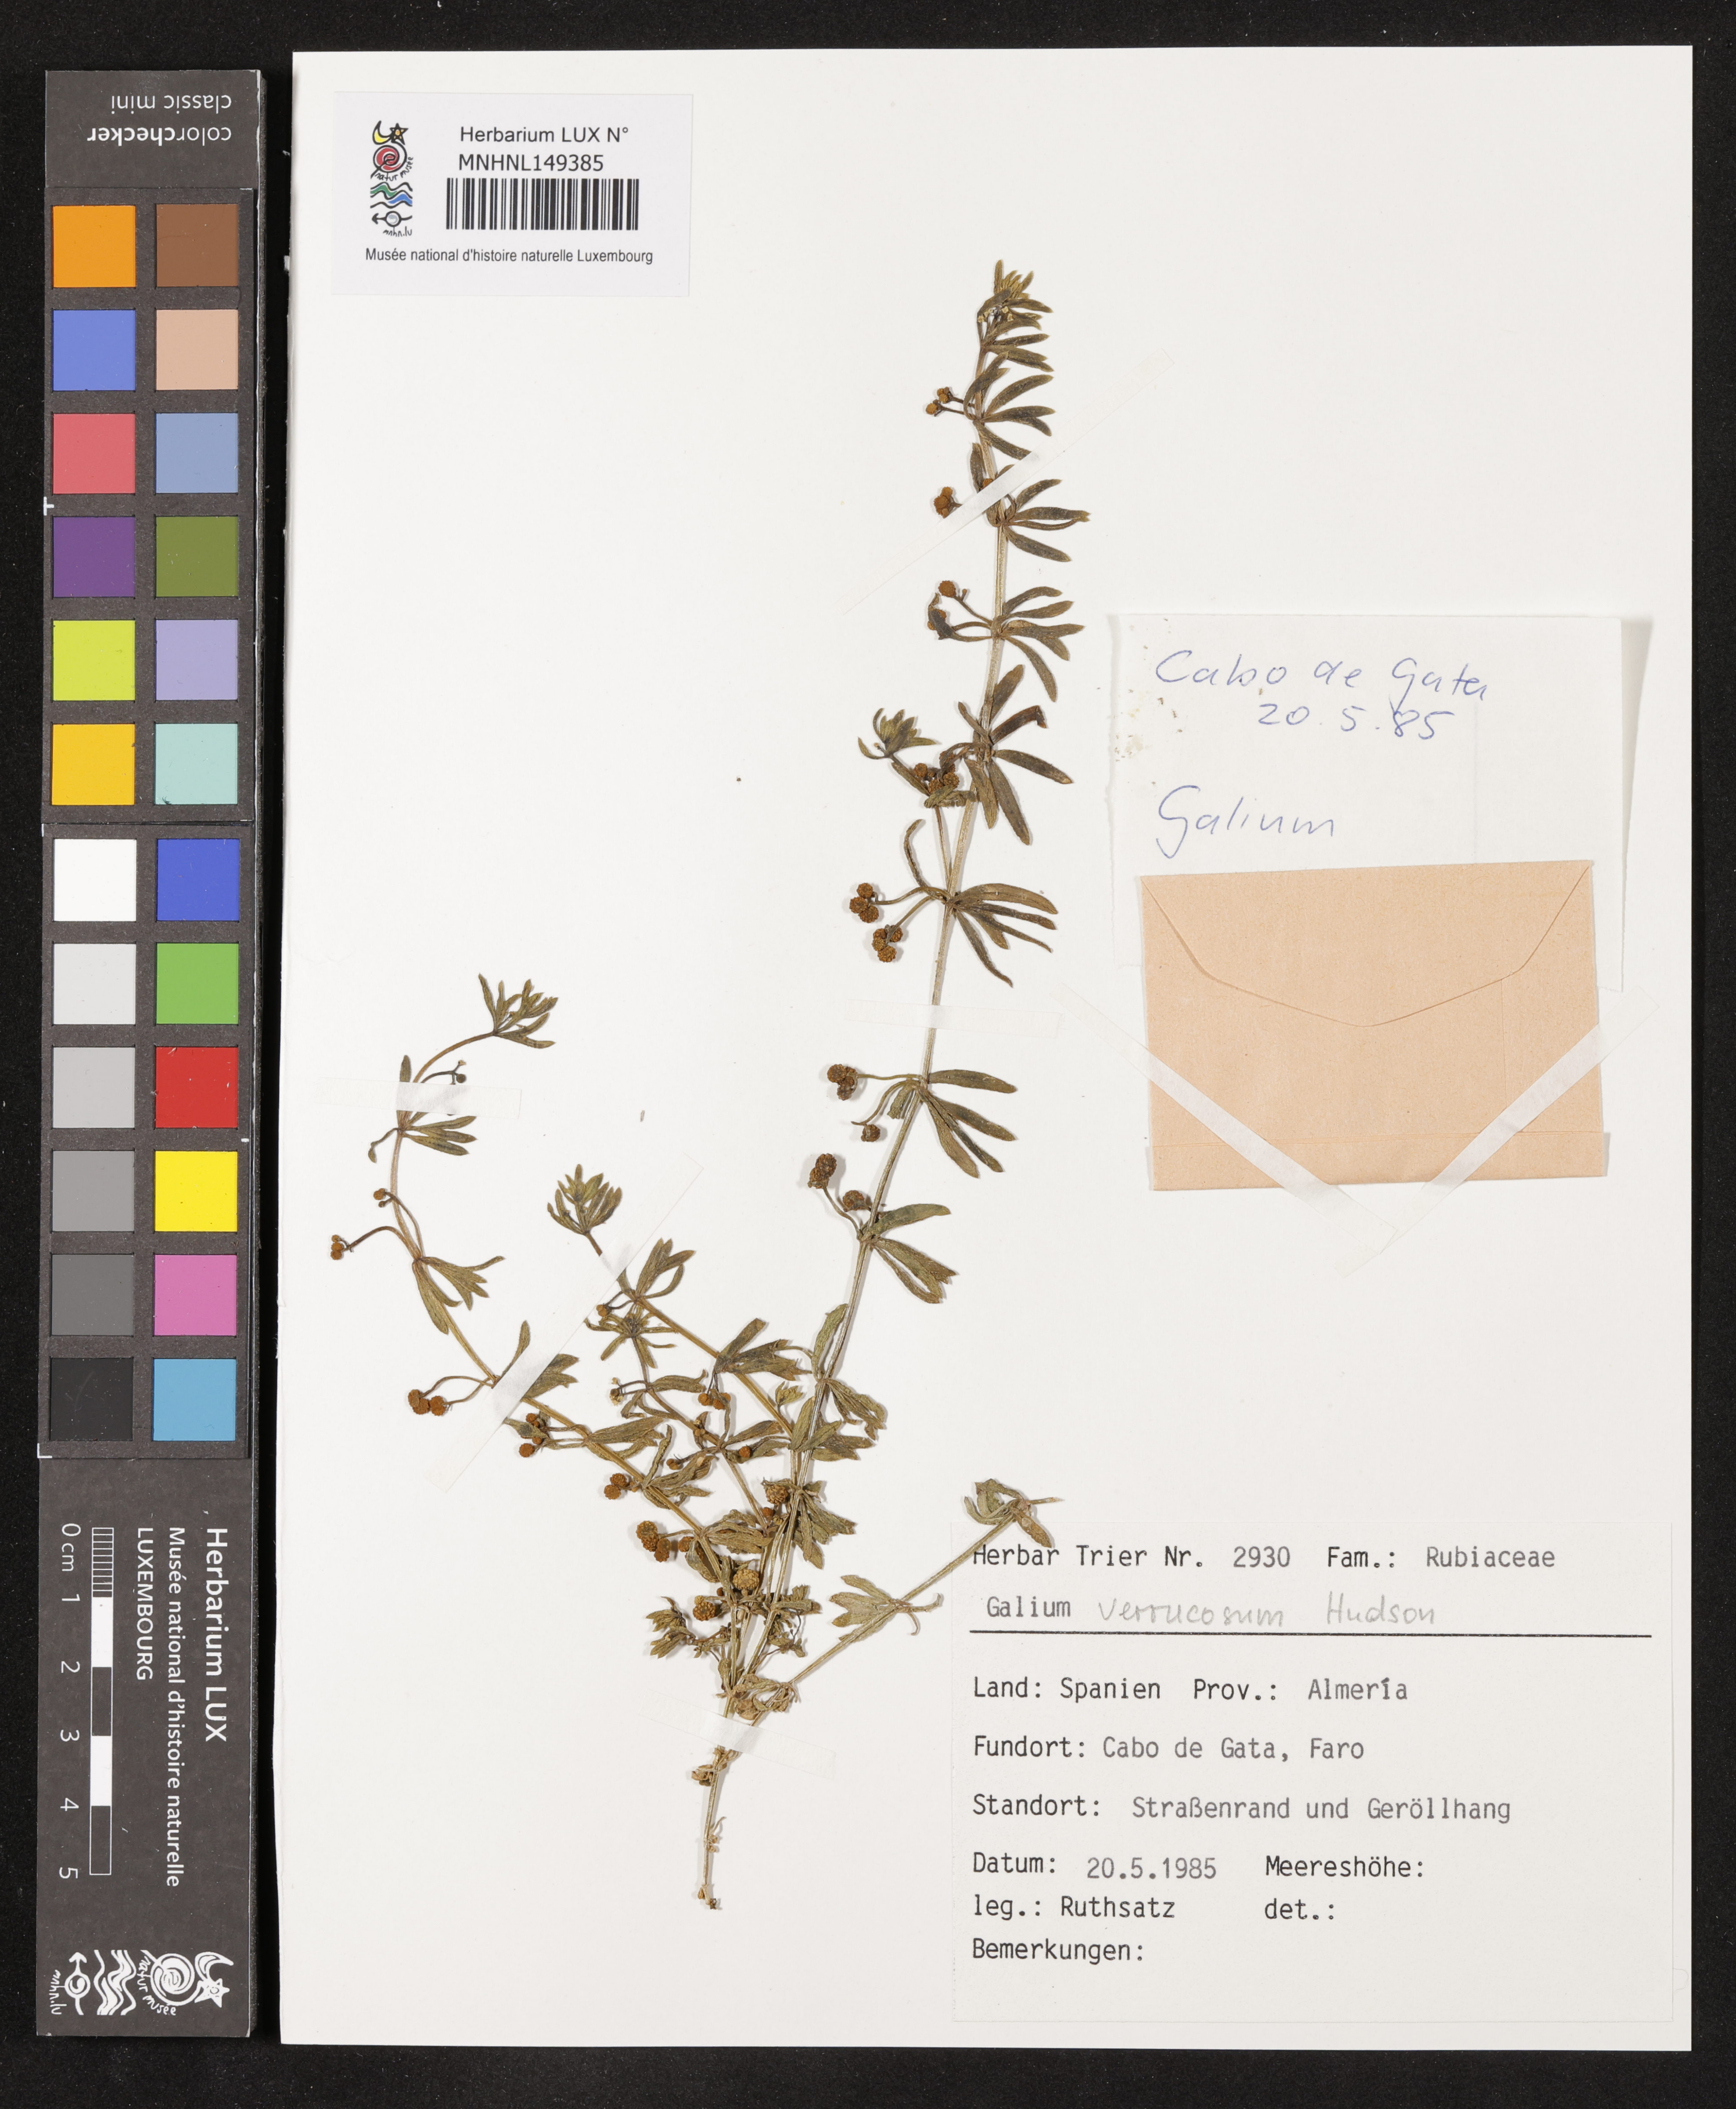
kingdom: Plantae
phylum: Tracheophyta
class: Magnoliopsida
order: Gentianales
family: Rubiaceae
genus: Galium
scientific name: Galium verrucosum
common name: Warty bedstraw
